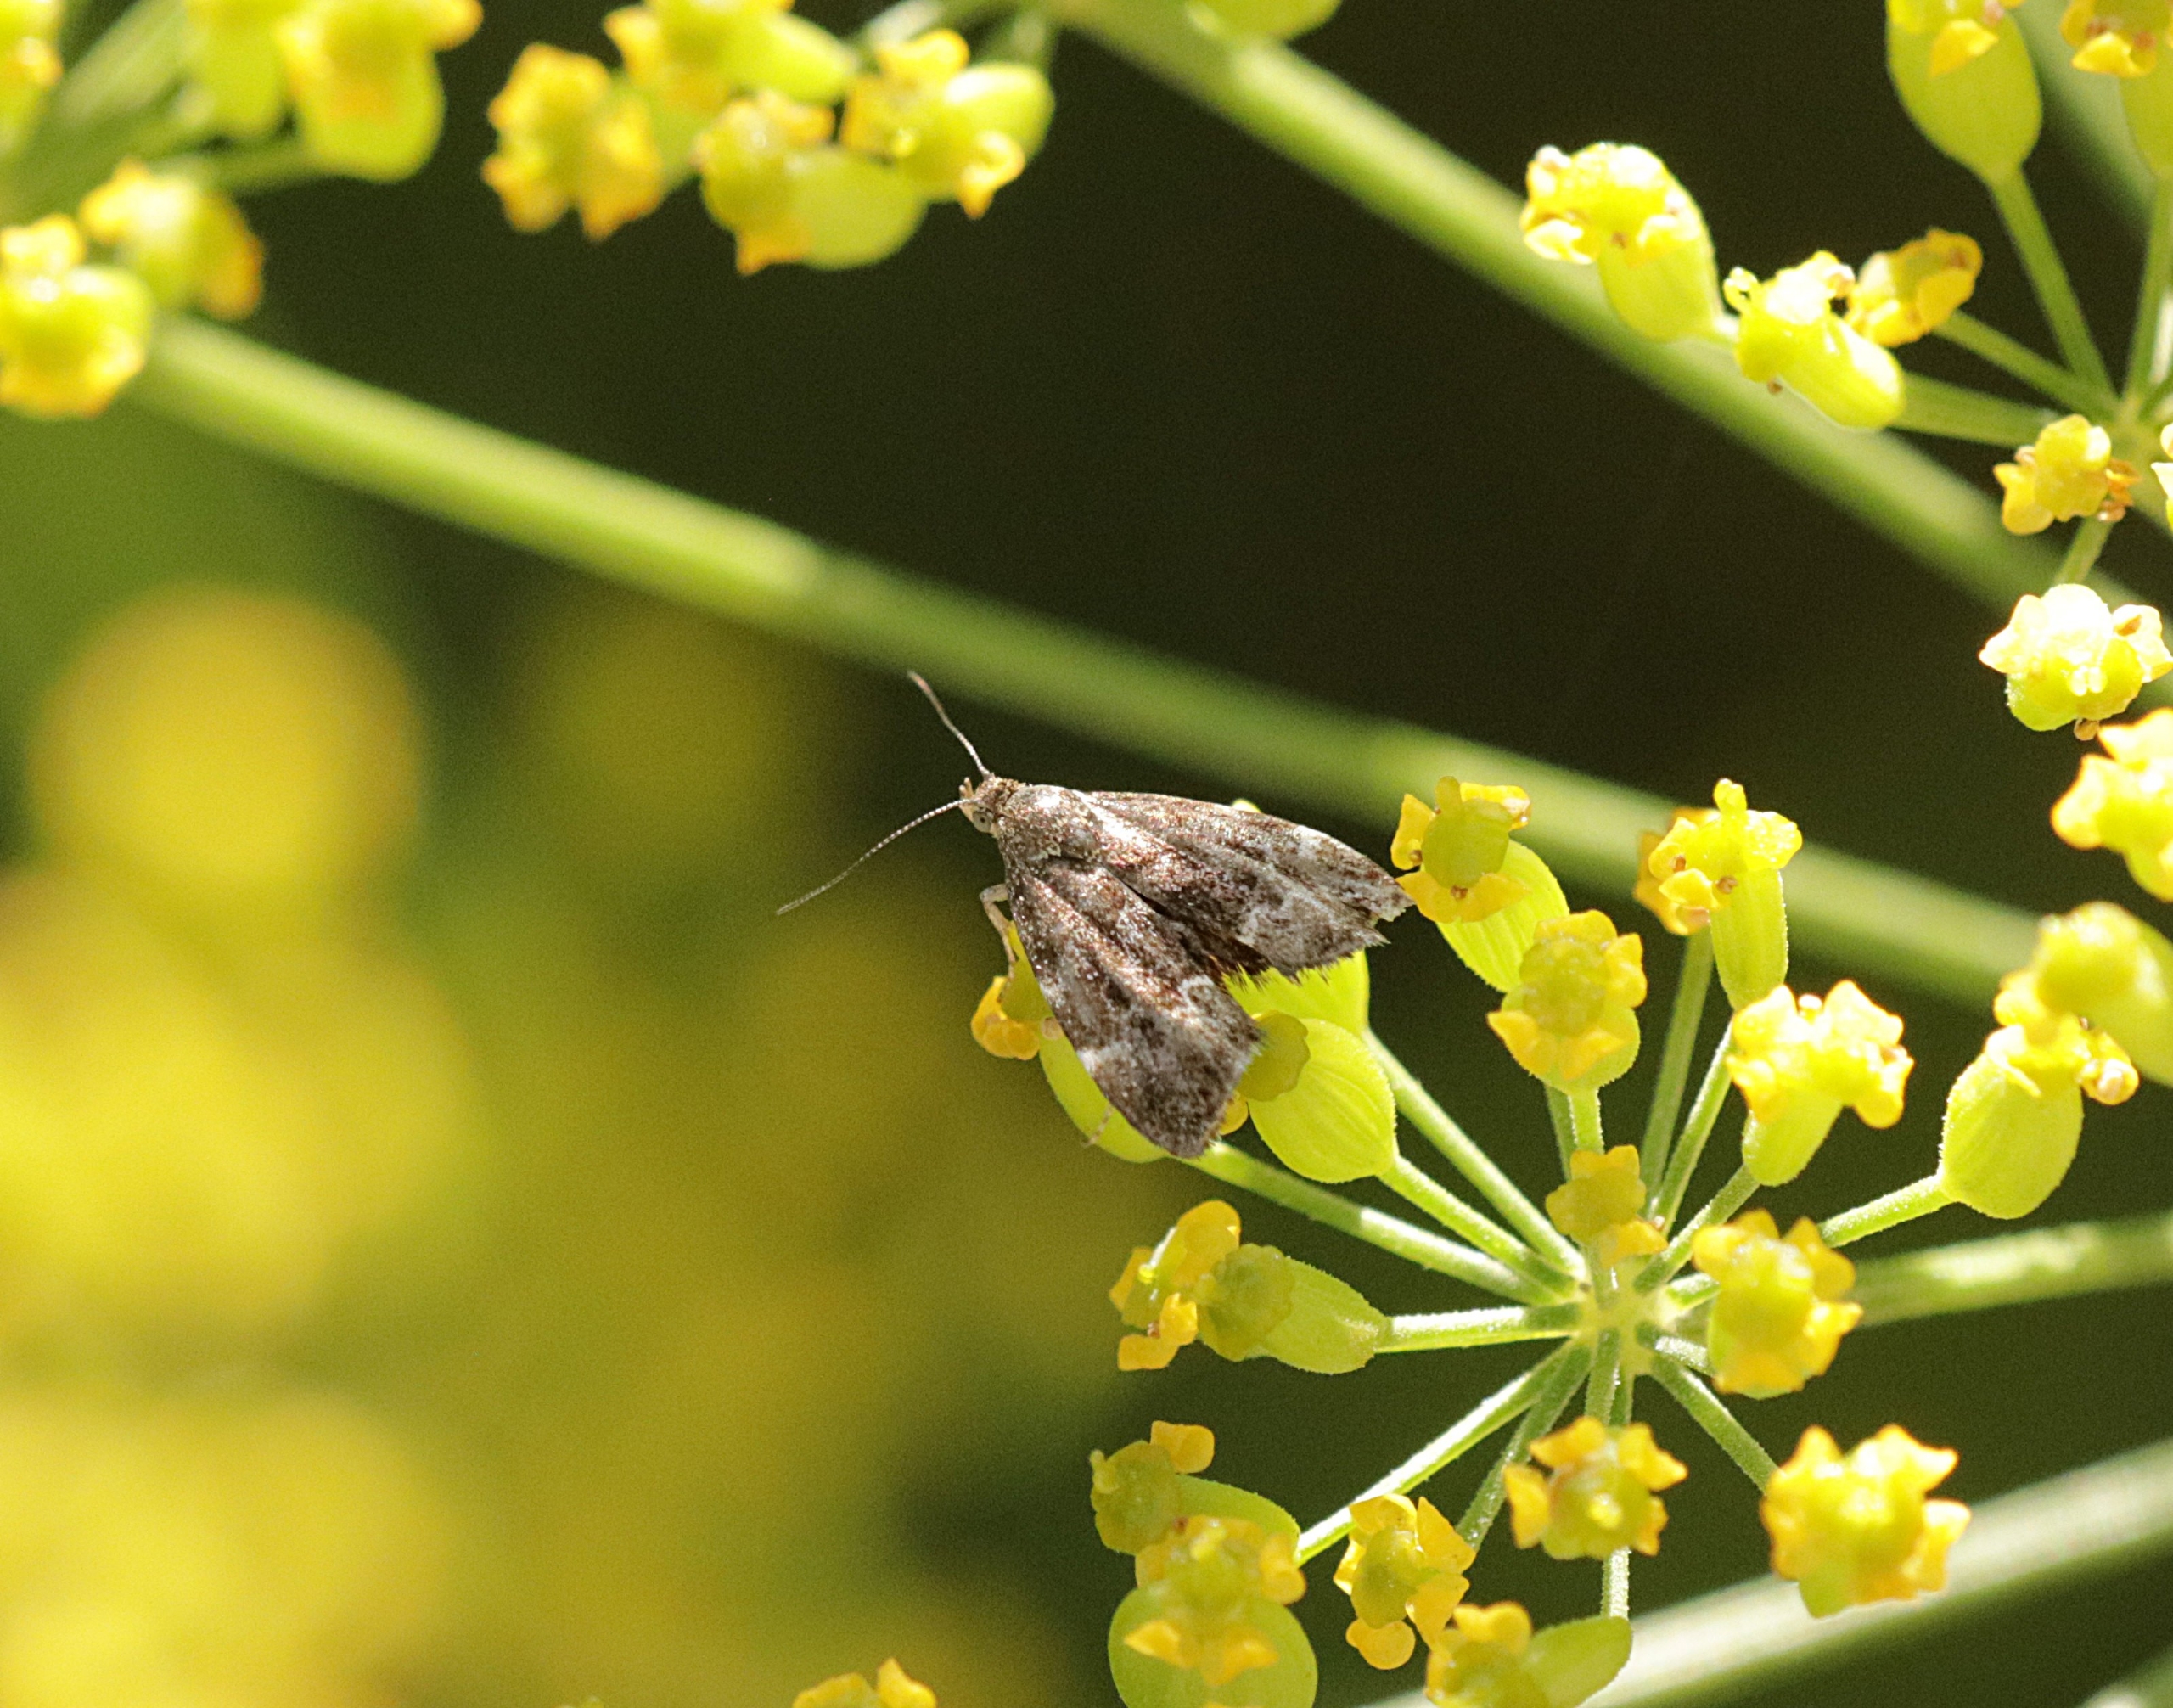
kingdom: Animalia
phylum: Arthropoda
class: Insecta
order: Lepidoptera
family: Choreutidae
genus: Anthophila
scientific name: Anthophila fabriciana
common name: Bredvinget nældevikler
